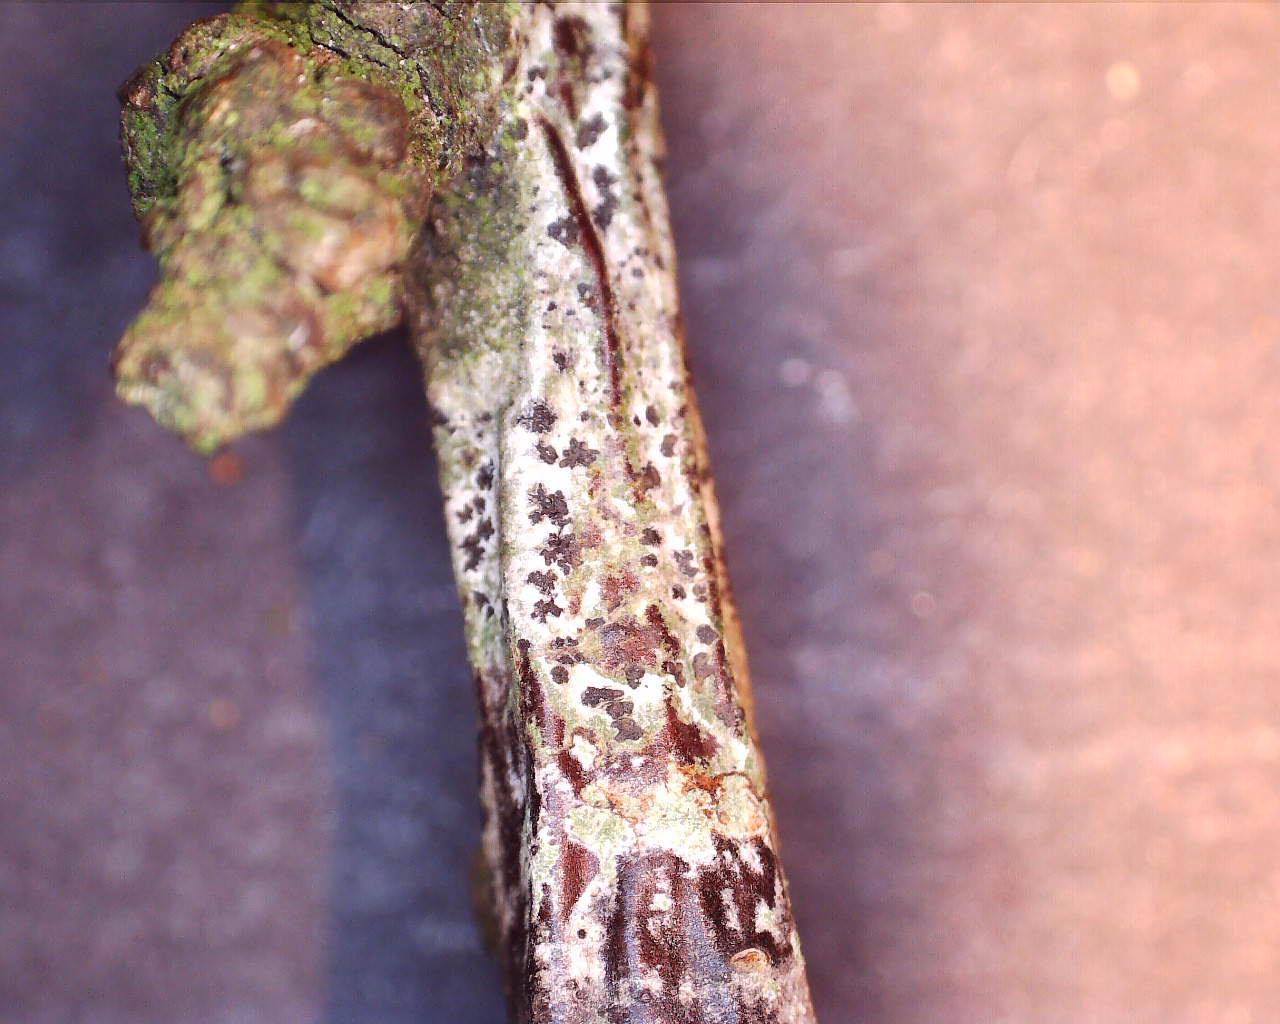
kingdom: Fungi
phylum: Ascomycota
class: Arthoniomycetes
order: Arthoniales
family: Arthoniaceae
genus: Arthonia
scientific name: Arthonia radiata
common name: stjerne-pletlav
